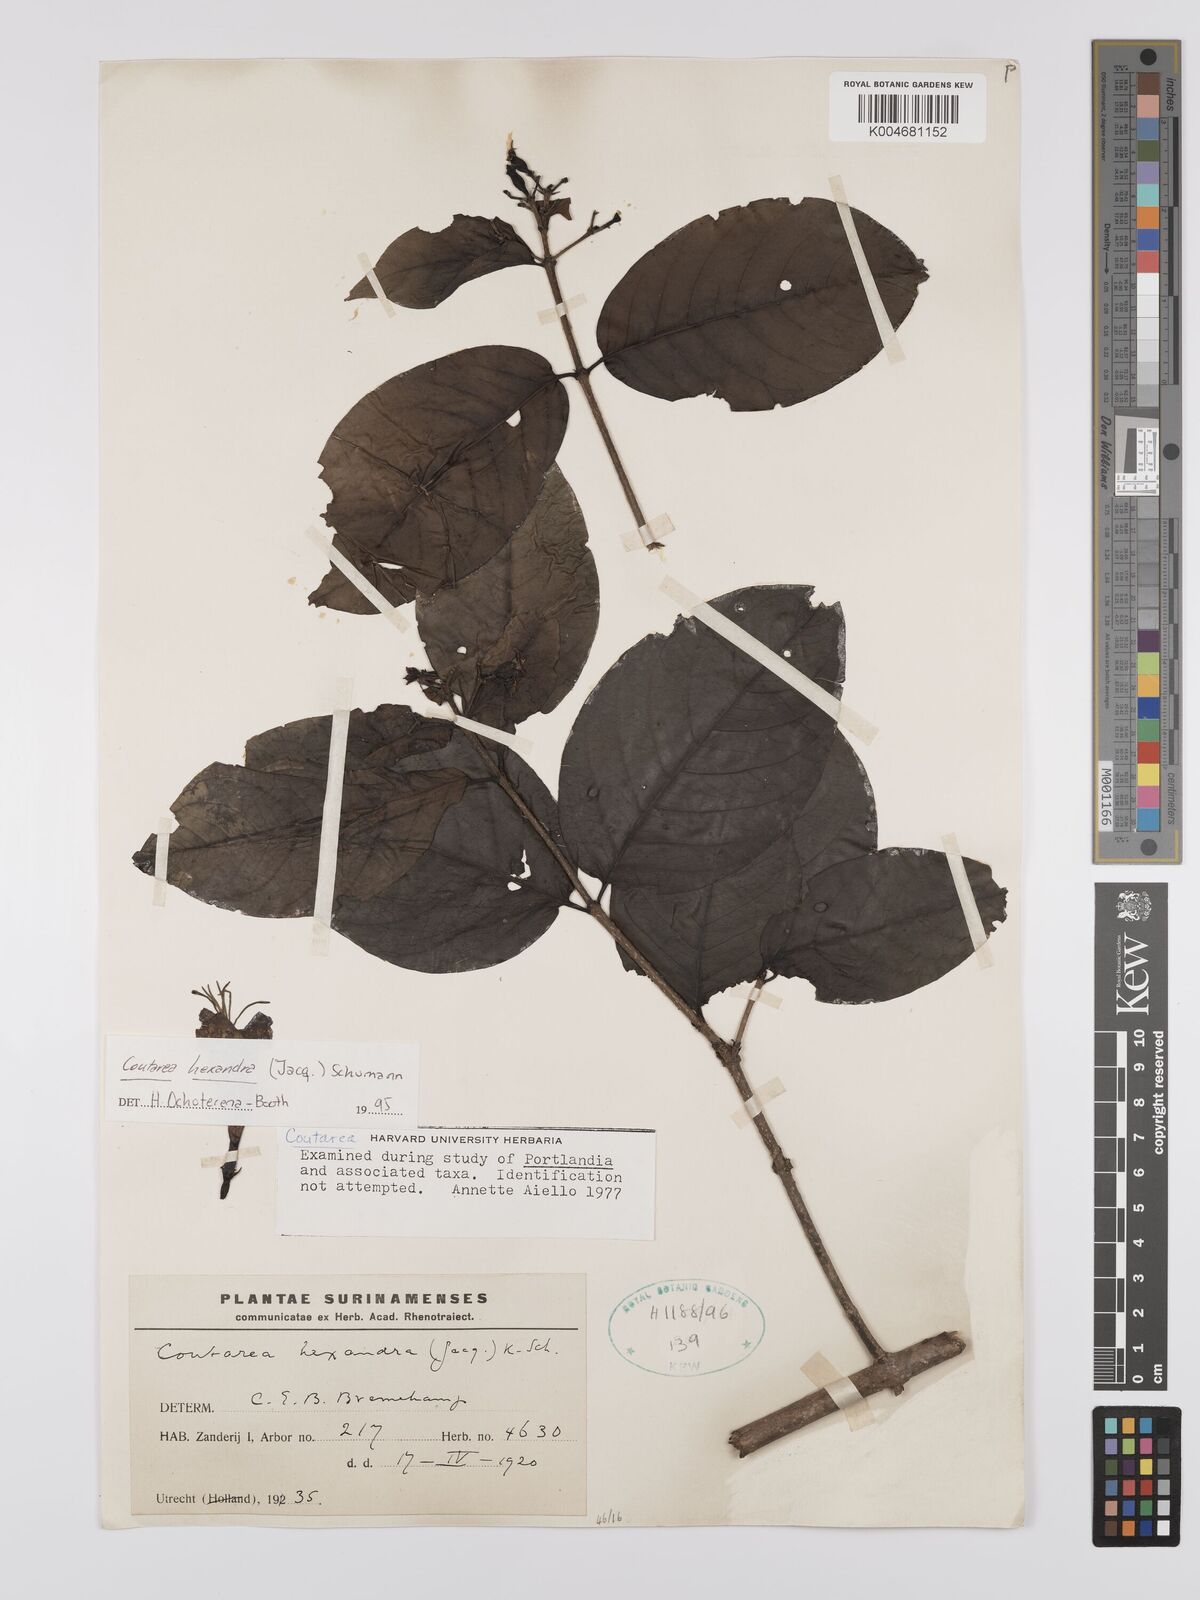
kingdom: Plantae
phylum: Tracheophyta
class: Magnoliopsida
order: Gentianales
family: Rubiaceae
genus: Coutarea
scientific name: Coutarea hexandra
